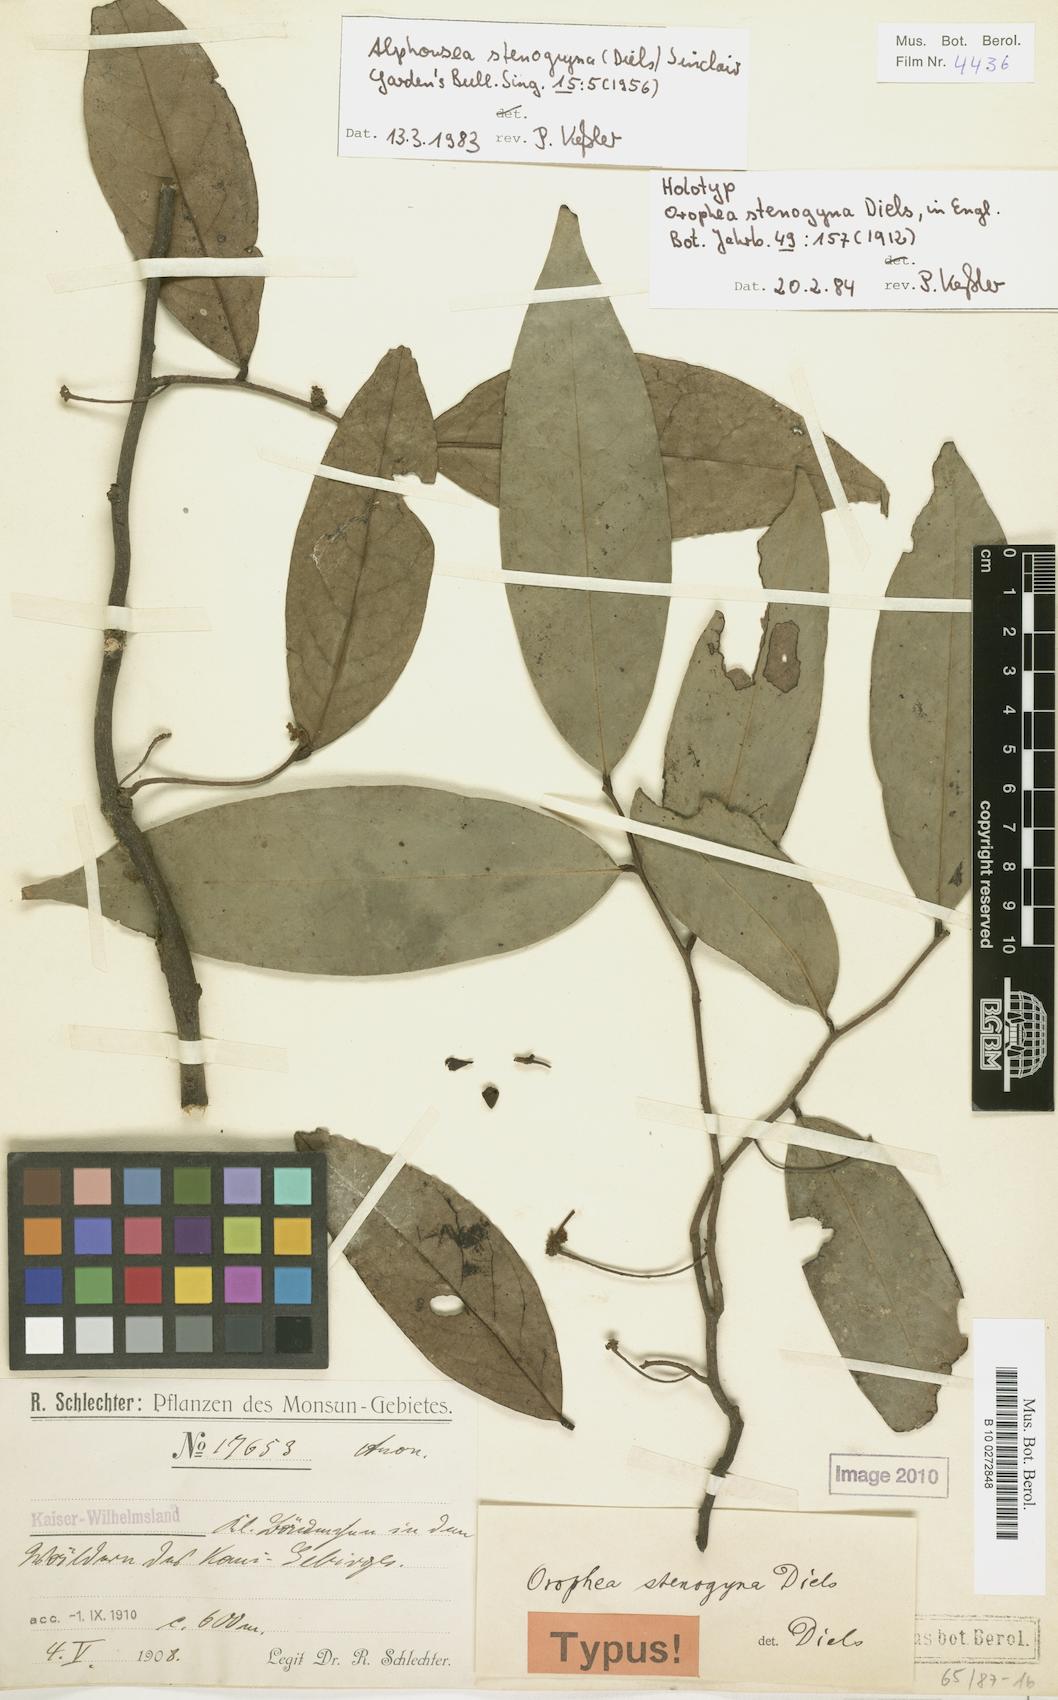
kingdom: Plantae
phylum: Tracheophyta
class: Magnoliopsida
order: Magnoliales
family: Annonaceae
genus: Alphonsea
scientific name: Alphonsea stenogyna
